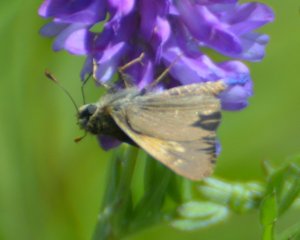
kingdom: Animalia
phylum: Arthropoda
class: Insecta
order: Lepidoptera
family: Hesperiidae
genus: Polites
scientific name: Polites themistocles
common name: Tawny-edged Skipper
